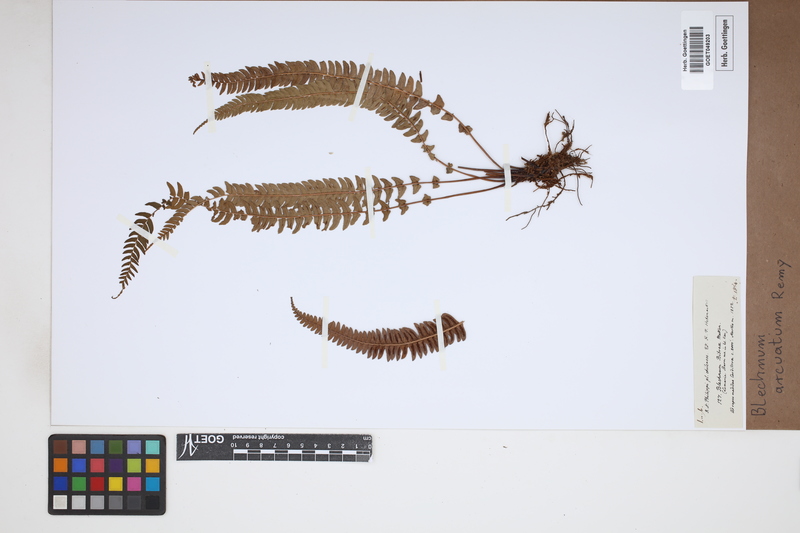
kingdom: Plantae
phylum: Tracheophyta
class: Polypodiopsida
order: Polypodiales
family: Blechnaceae
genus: Blechnum
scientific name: Blechnum arcuatum
